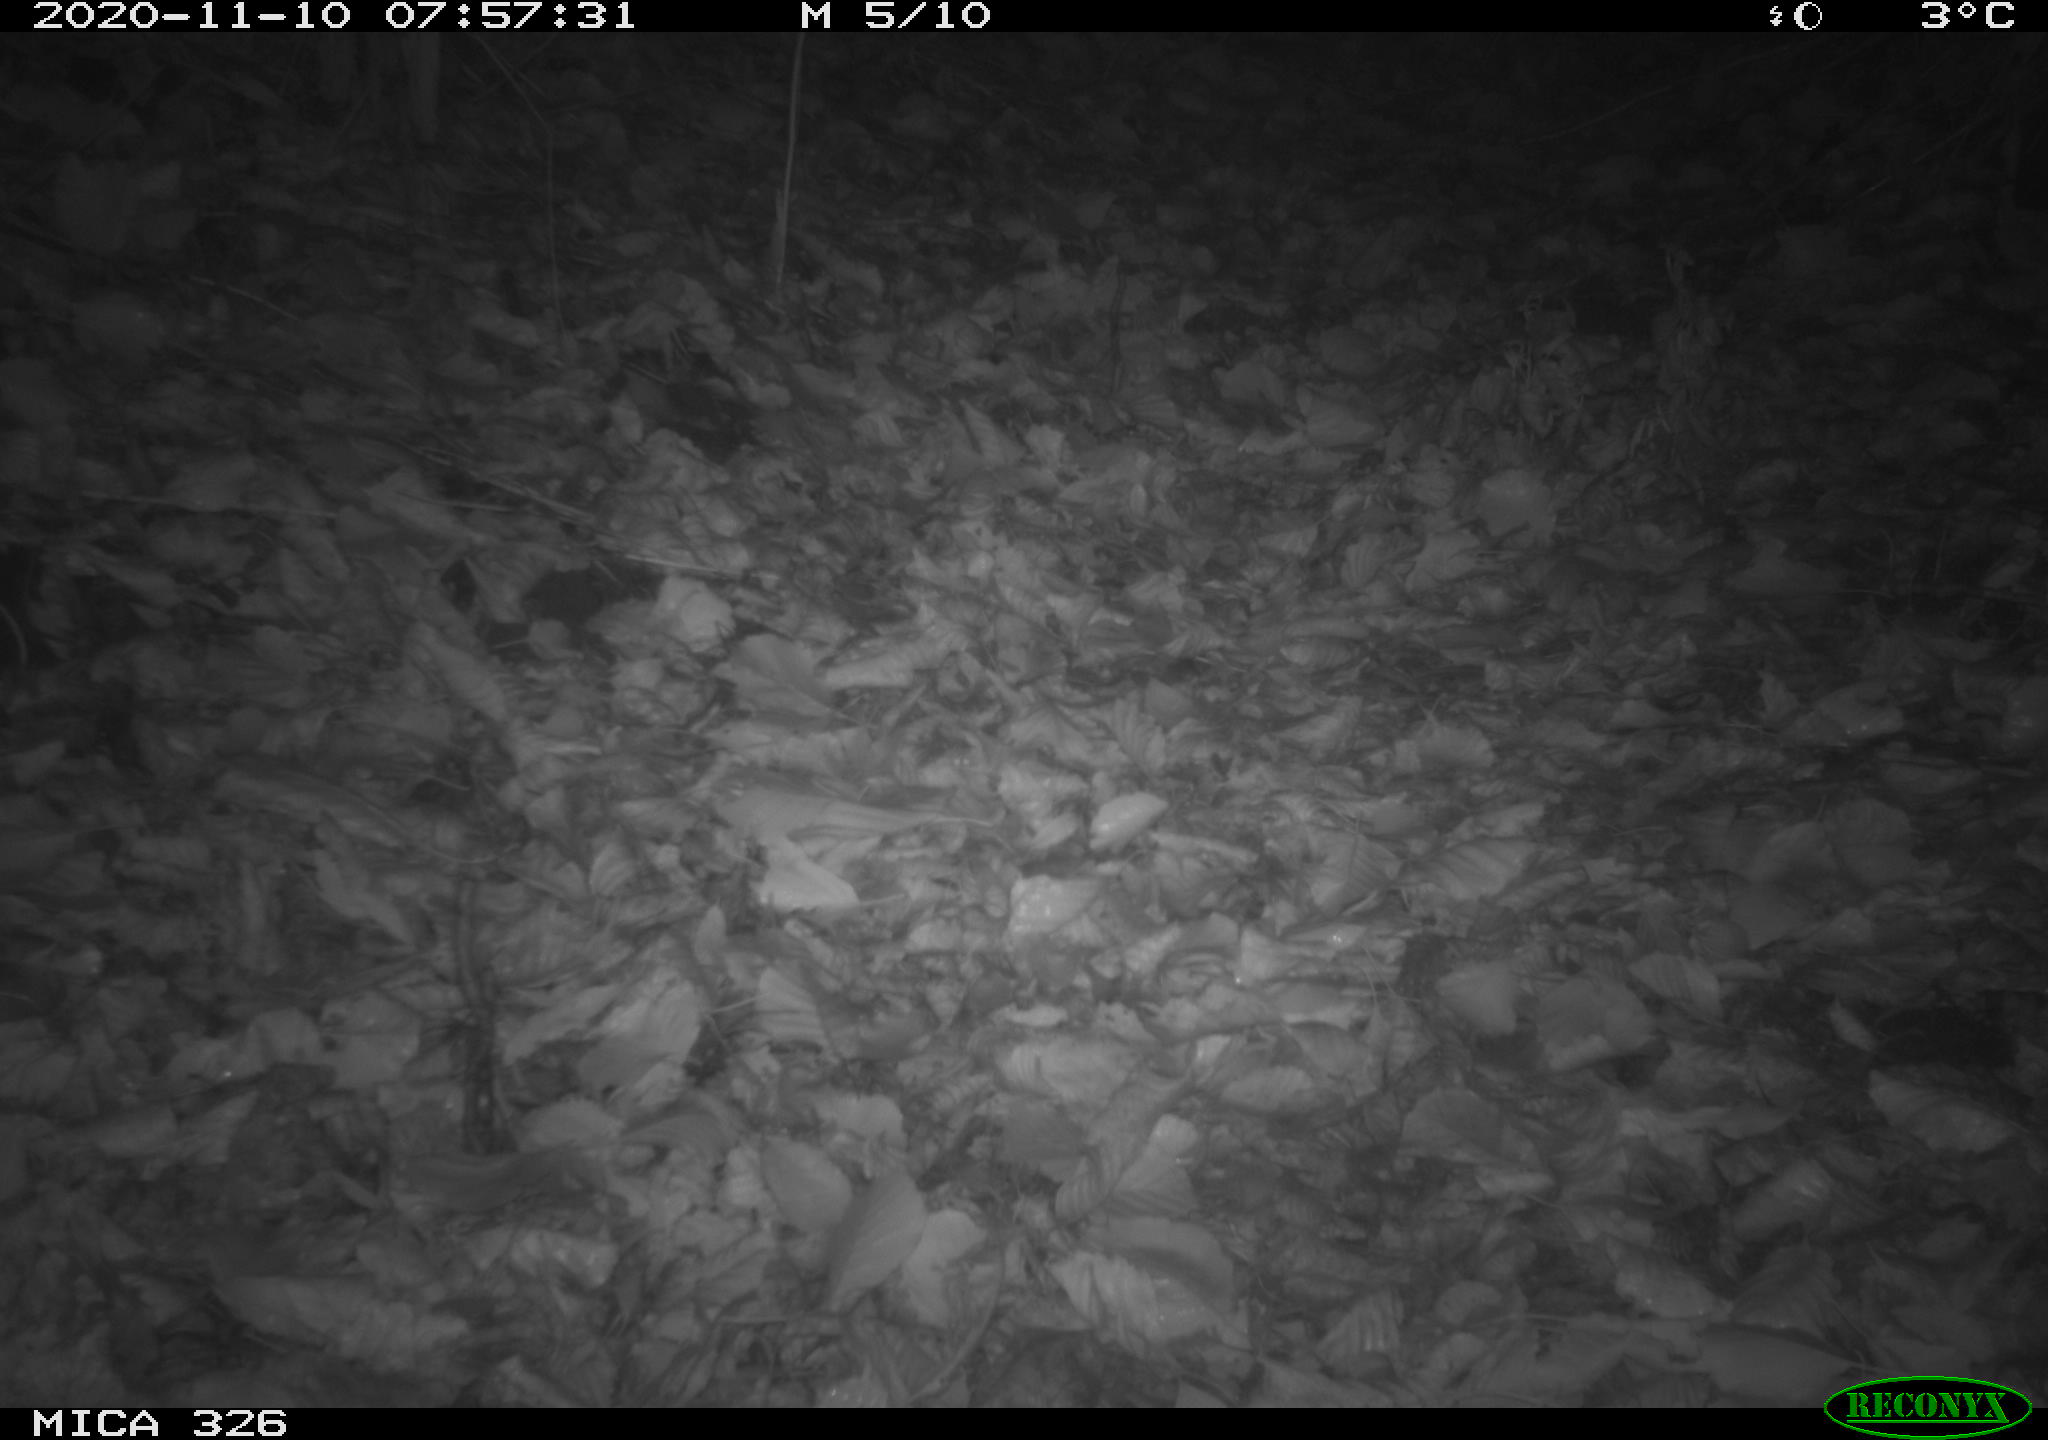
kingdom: Animalia
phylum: Chordata
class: Mammalia
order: Carnivora
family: Mustelidae
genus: Lutra
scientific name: Lutra lutra
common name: European otter
